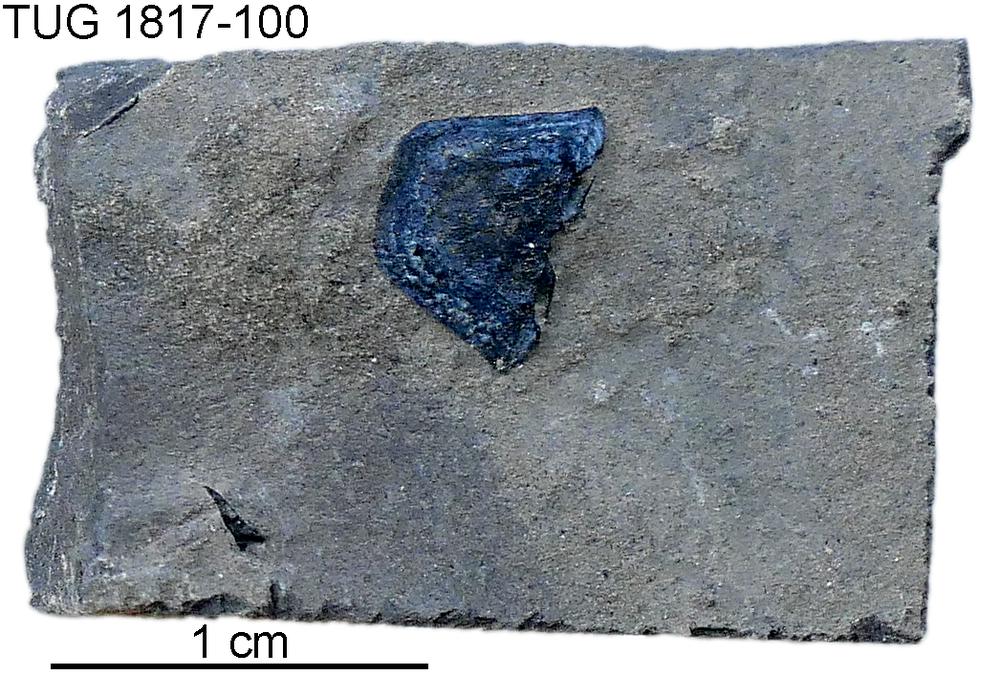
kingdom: Animalia
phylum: Chordata
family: Coccosteidae
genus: Millerosteus
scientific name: Millerosteus minor
